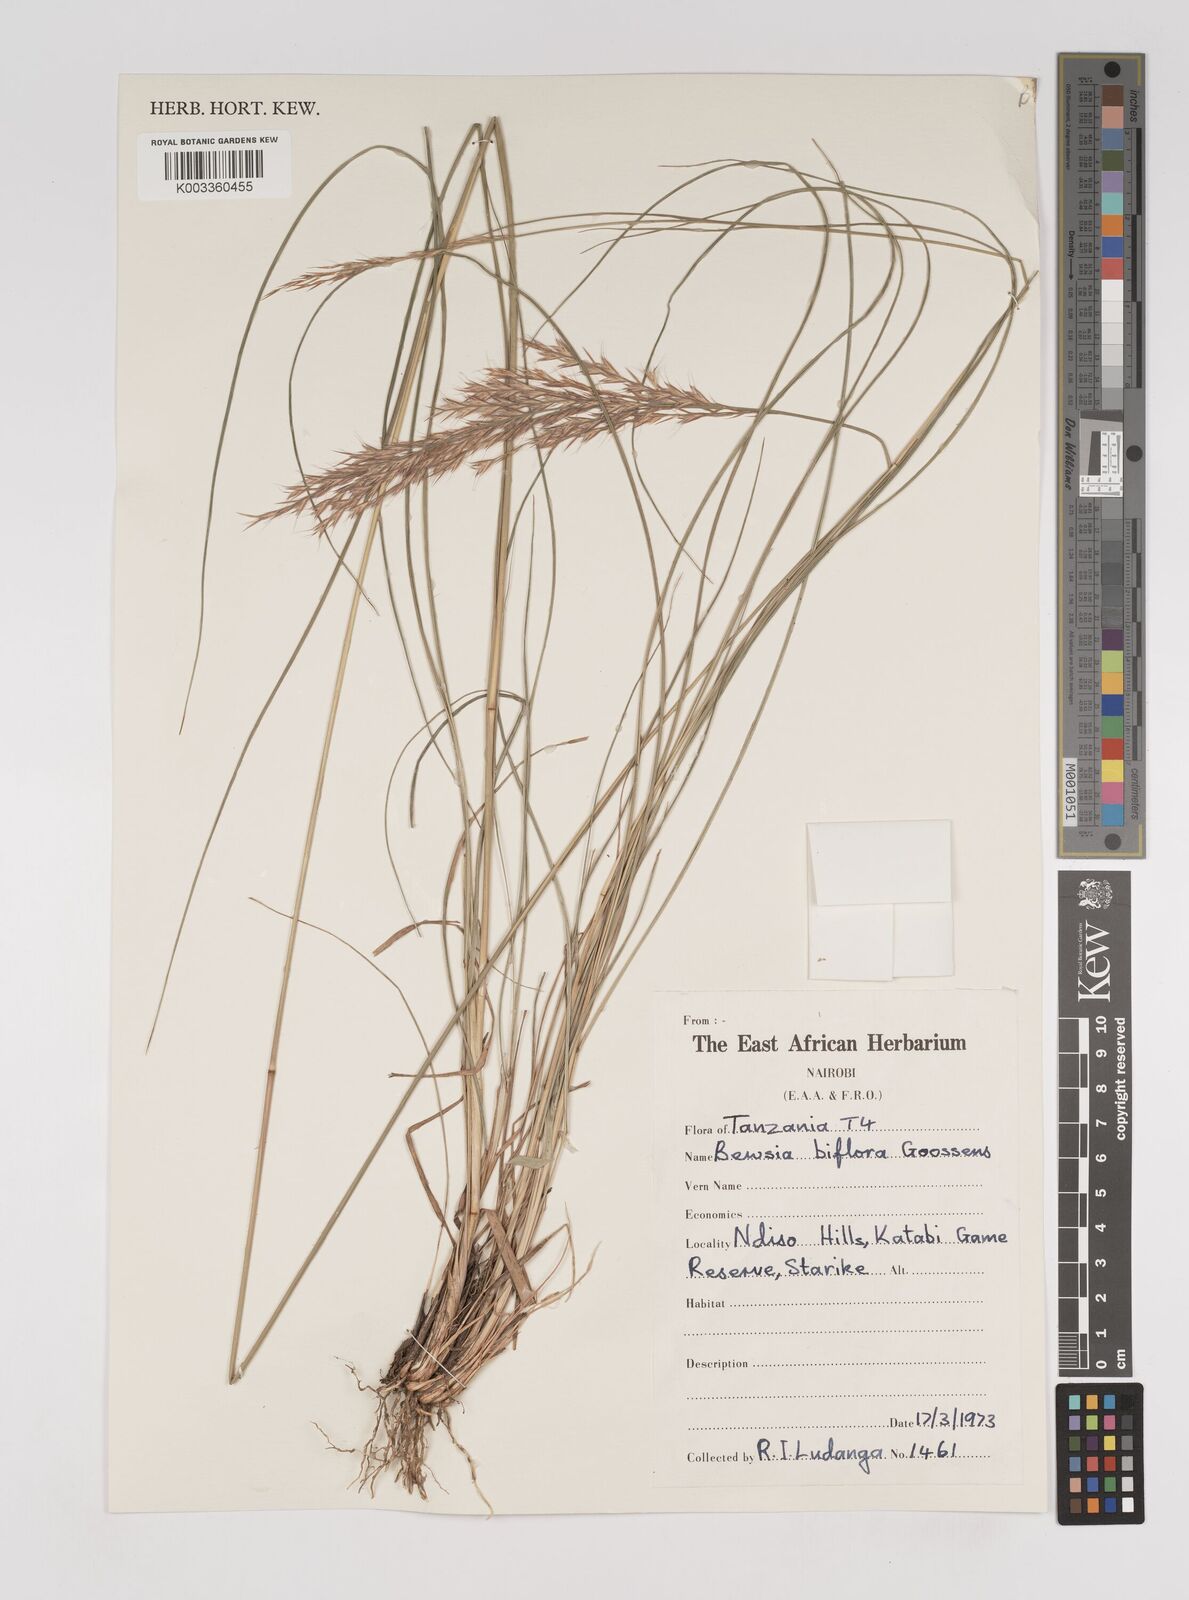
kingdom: Plantae
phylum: Tracheophyta
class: Liliopsida
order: Poales
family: Poaceae
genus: Bewsia
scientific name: Bewsia biflora
